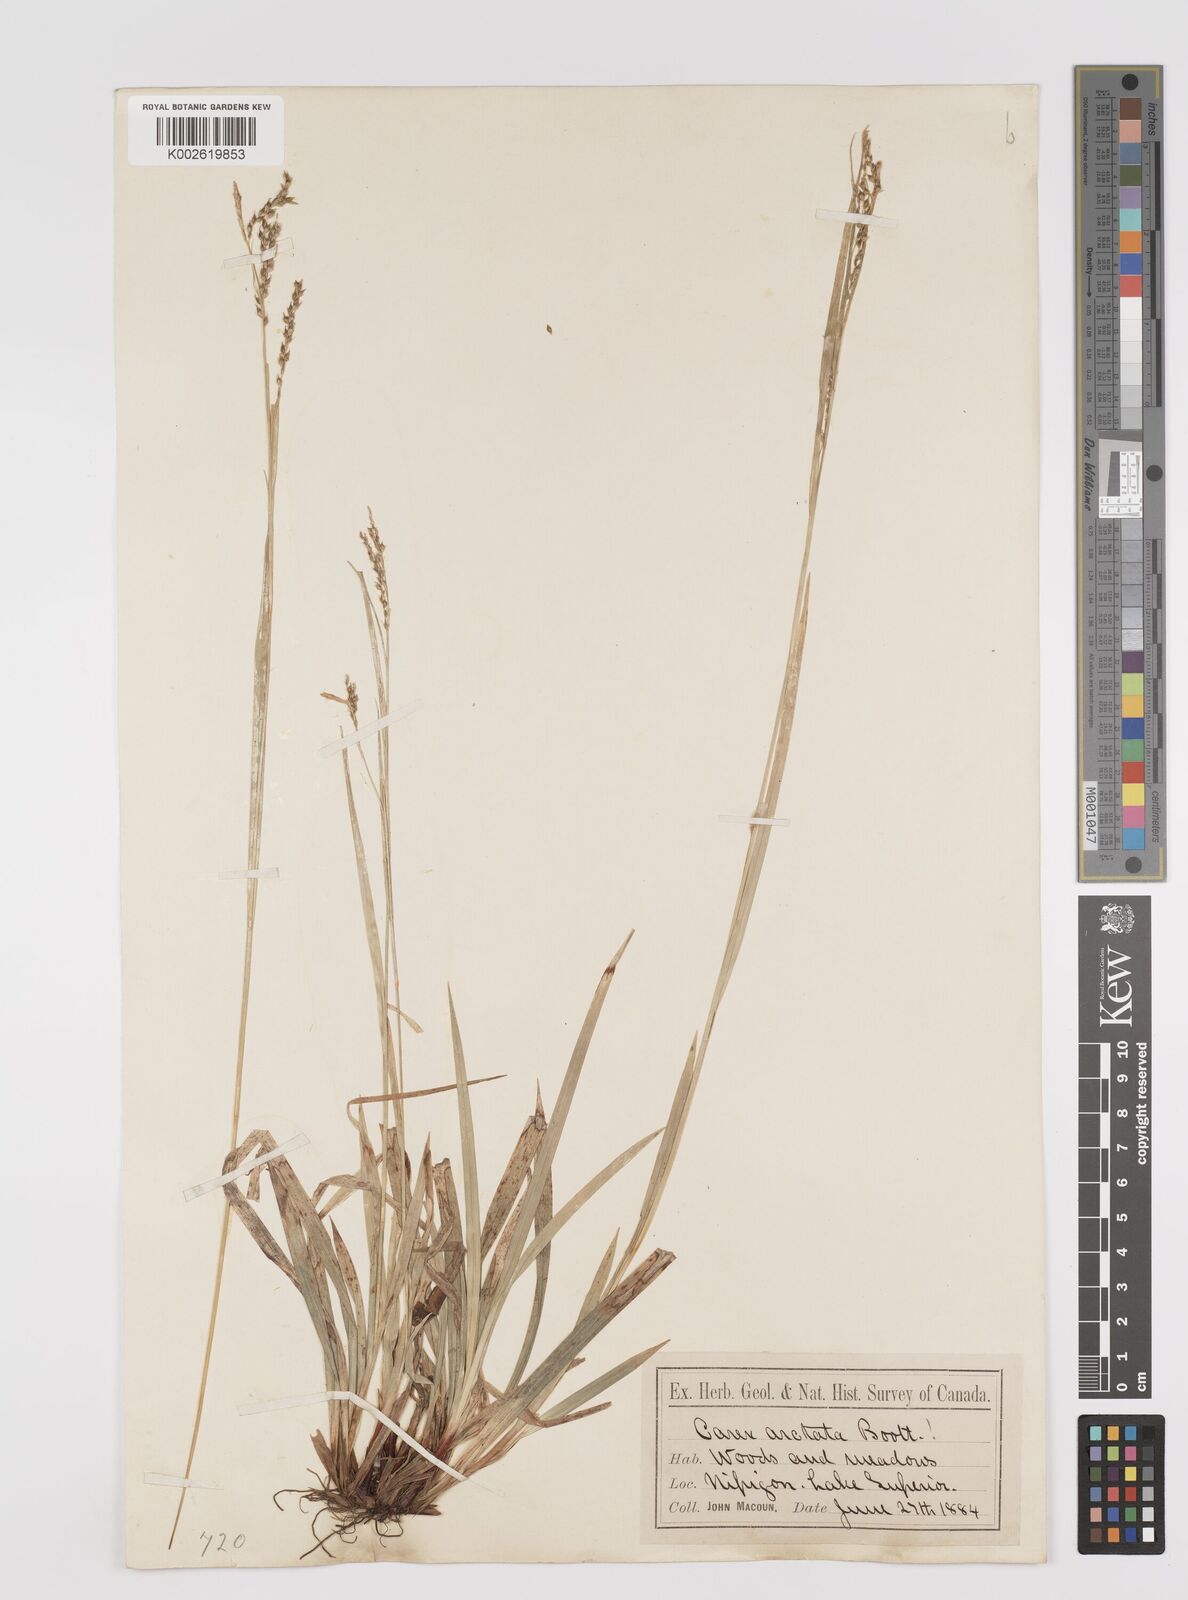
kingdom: Plantae
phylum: Tracheophyta
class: Liliopsida
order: Poales
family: Cyperaceae
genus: Carex
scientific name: Carex arctata
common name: Black sedge
